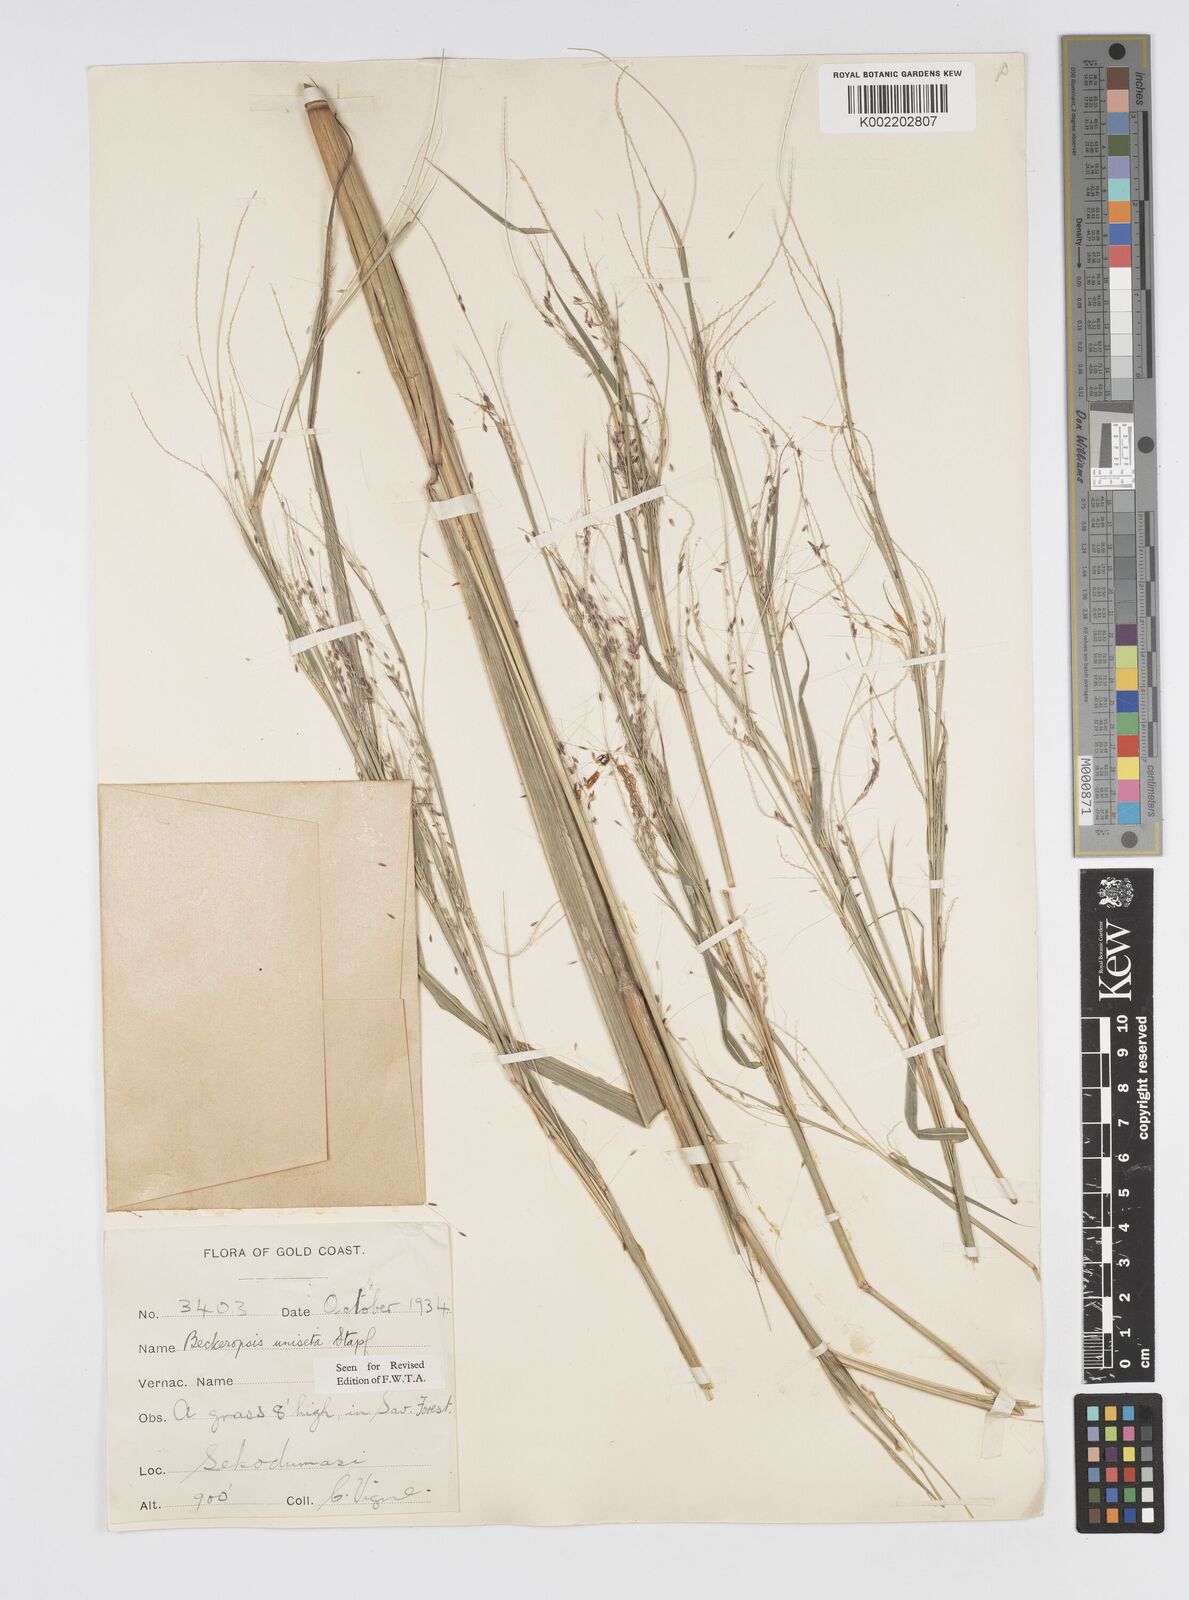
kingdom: Plantae
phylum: Tracheophyta
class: Liliopsida
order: Poales
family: Poaceae
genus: Cenchrus
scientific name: Cenchrus unisetus
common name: Natal grass
